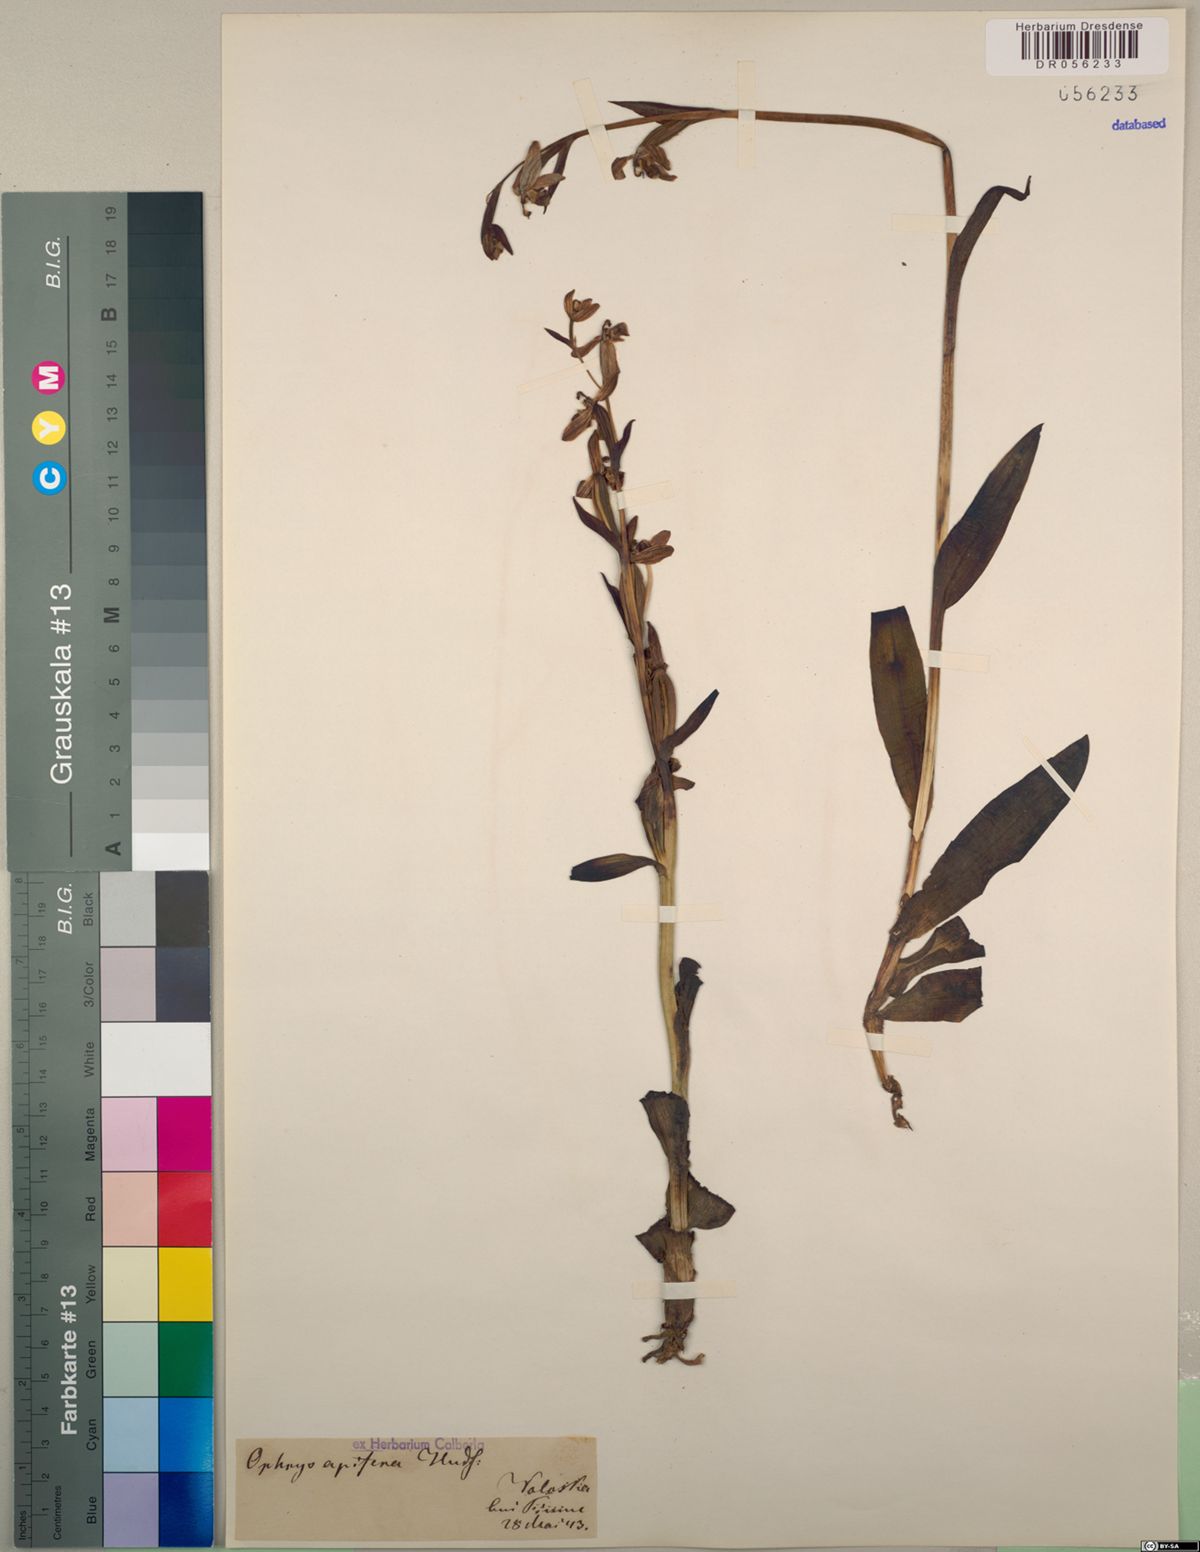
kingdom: Plantae
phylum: Tracheophyta
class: Liliopsida
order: Asparagales
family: Orchidaceae
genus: Ophrys
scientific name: Ophrys apifera
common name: Bee orchid
